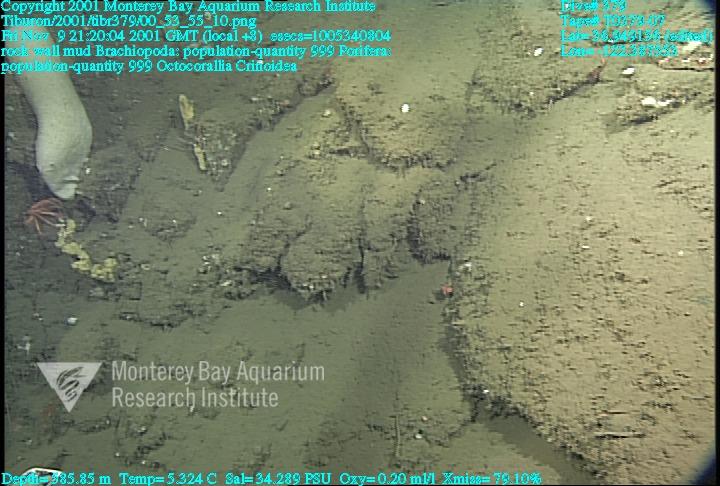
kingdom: Animalia
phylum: Porifera
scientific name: Porifera
